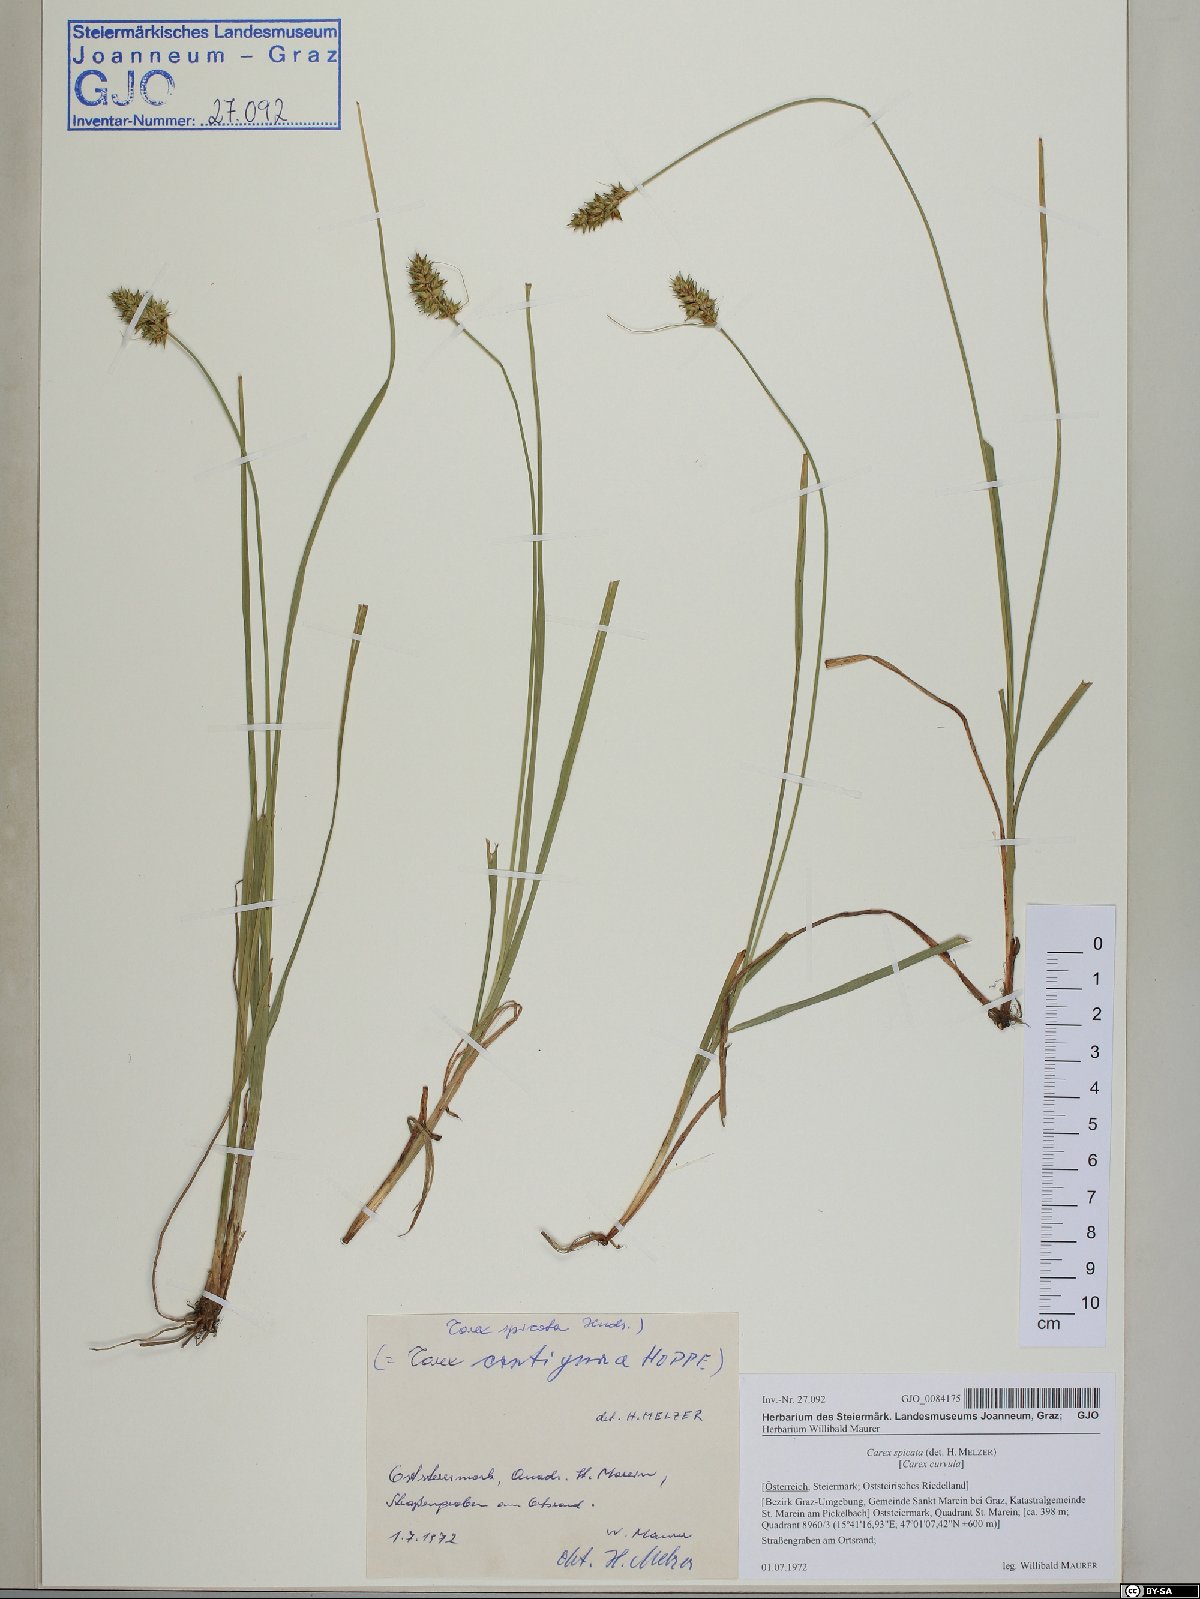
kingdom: Plantae
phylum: Tracheophyta
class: Liliopsida
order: Poales
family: Cyperaceae
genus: Carex
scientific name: Carex spicata
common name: Spiked sedge
